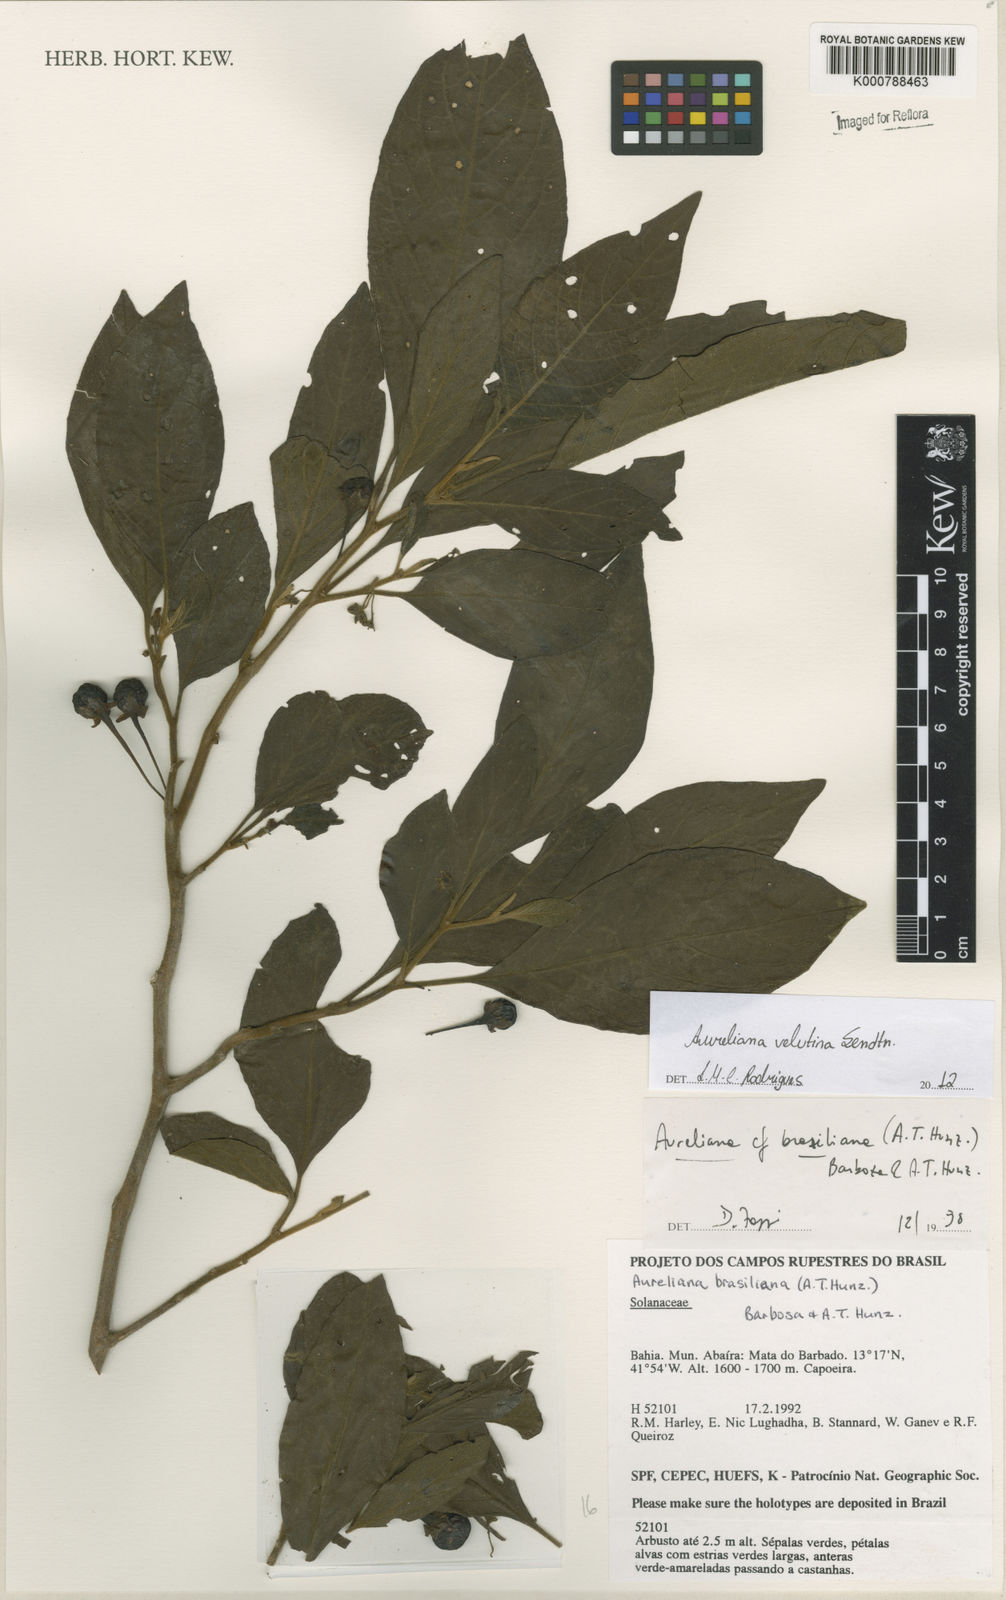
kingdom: Plantae
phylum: Tracheophyta
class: Magnoliopsida
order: Solanales
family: Solanaceae
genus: Athenaea
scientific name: Athenaea velutina
